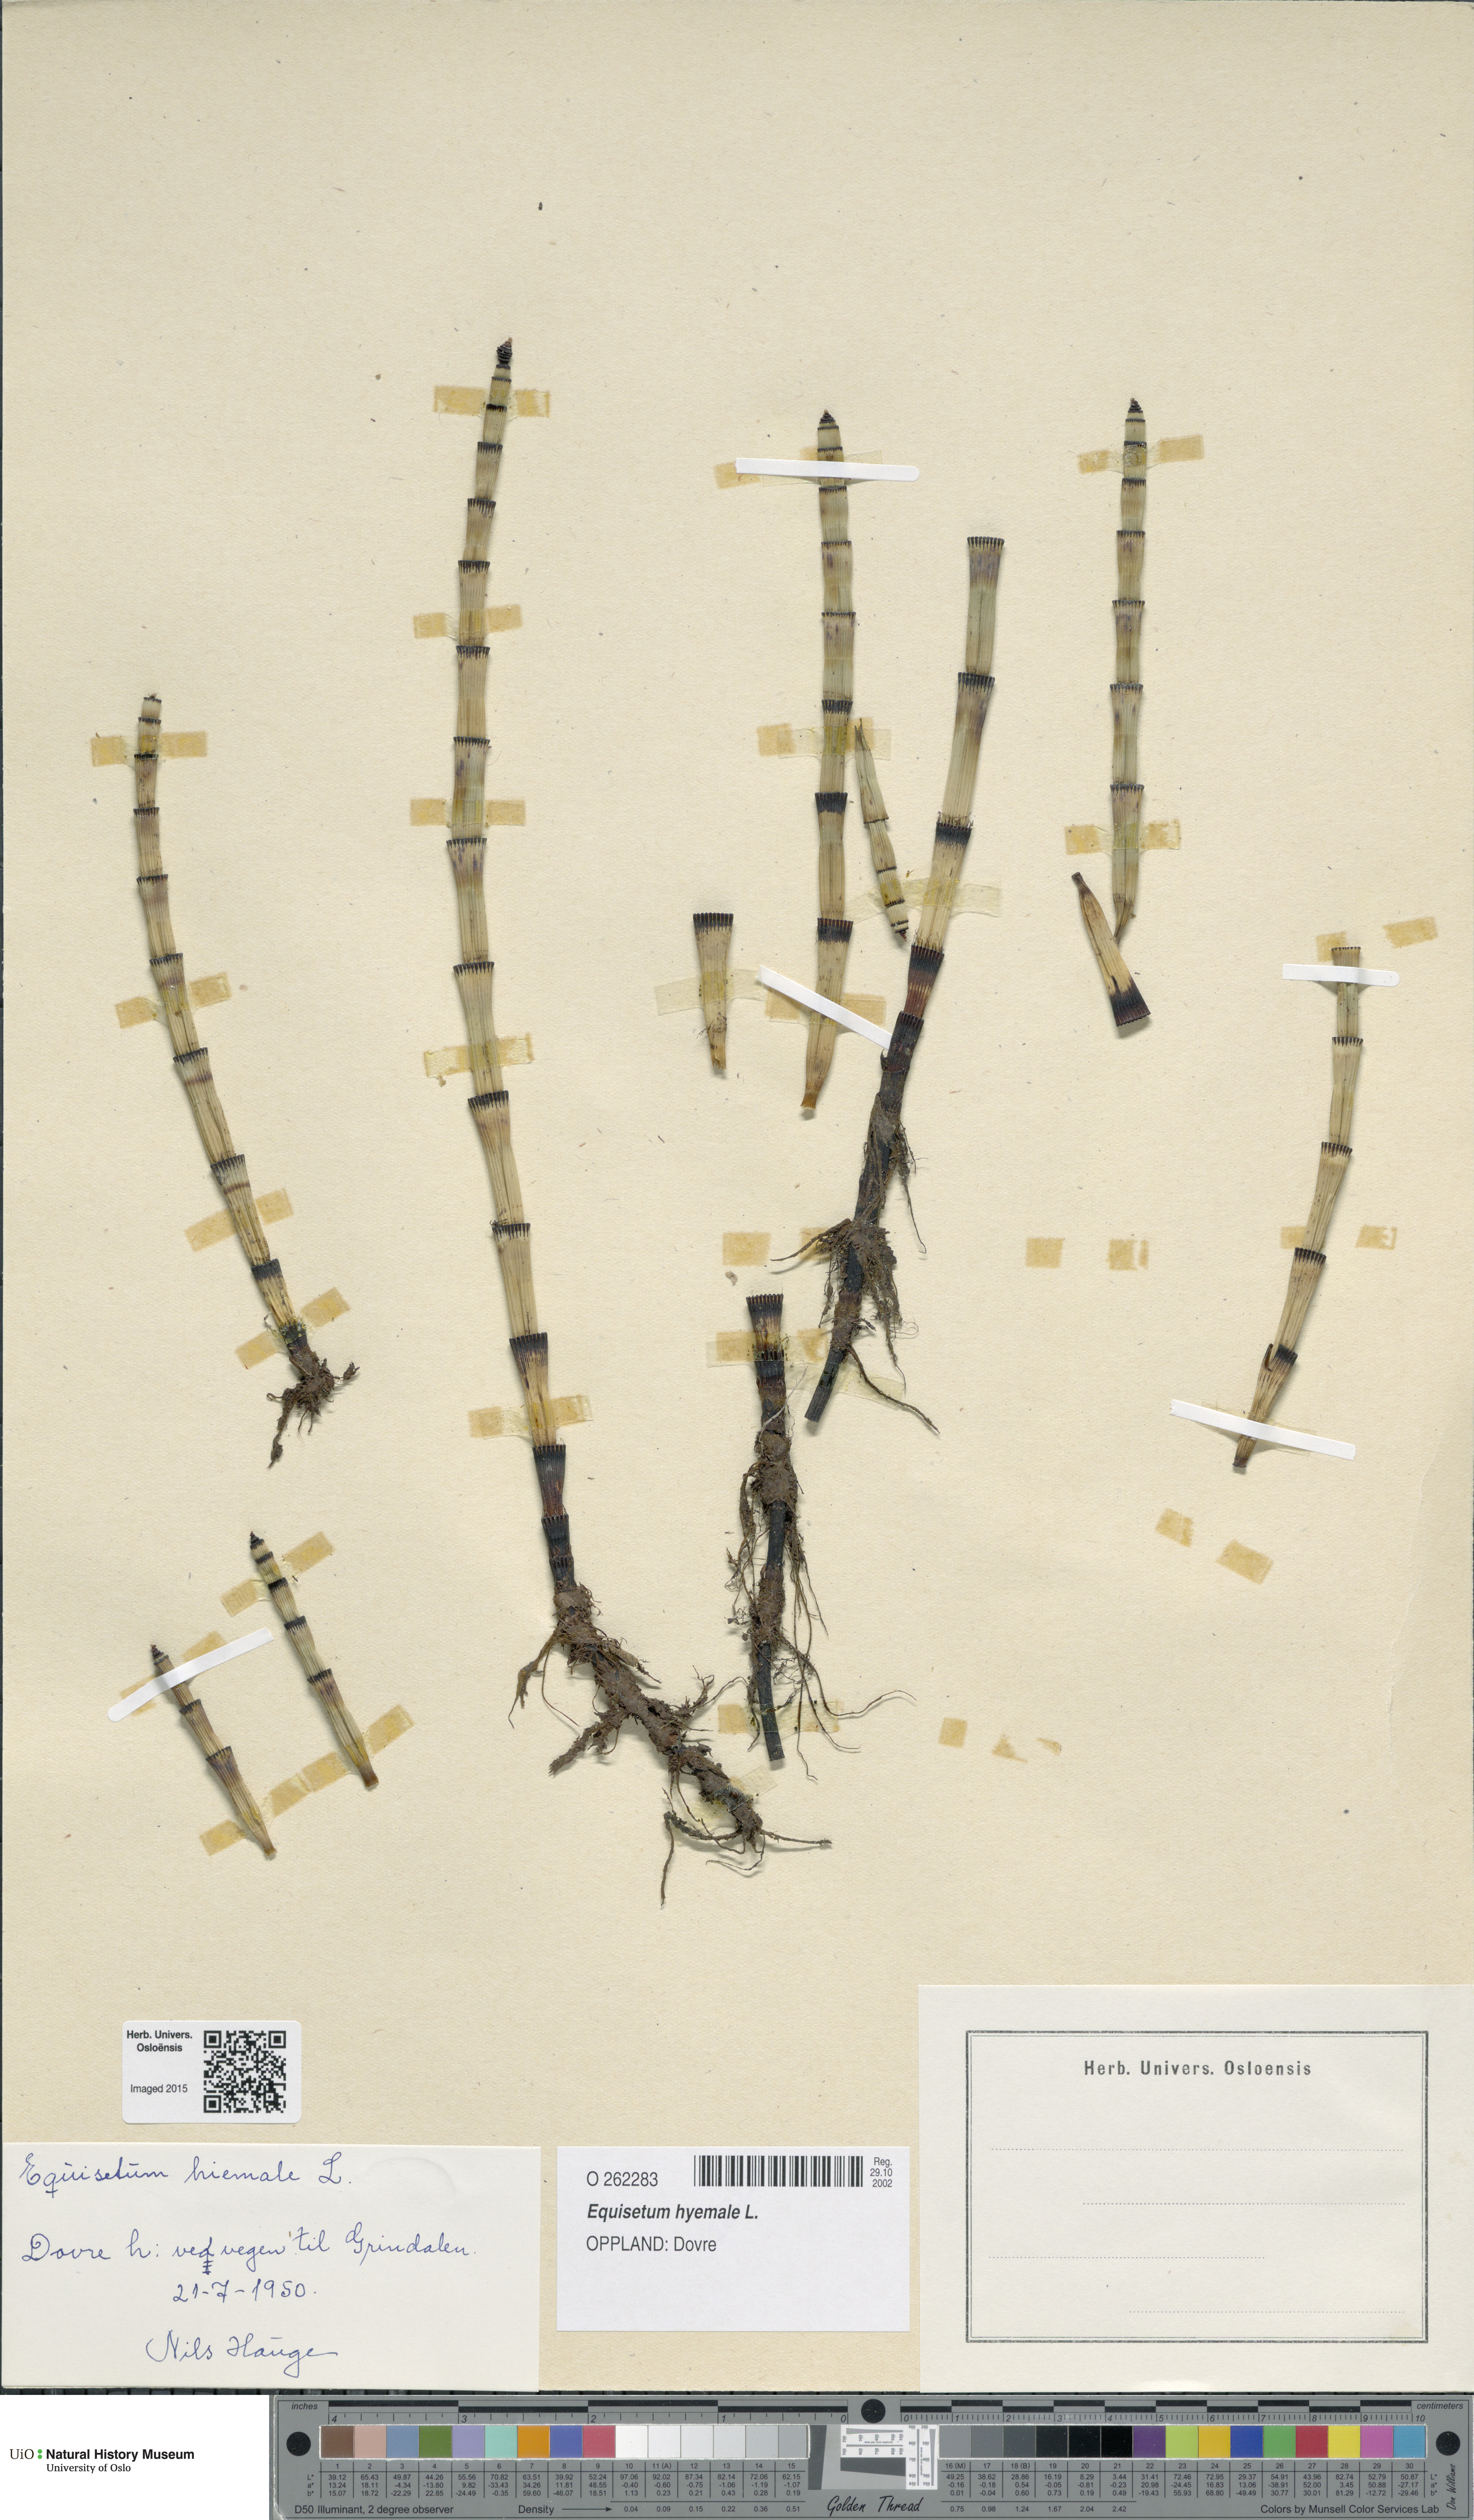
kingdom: Plantae
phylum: Tracheophyta
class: Polypodiopsida
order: Equisetales
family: Equisetaceae
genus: Equisetum
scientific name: Equisetum hyemale
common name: Rough horsetail
